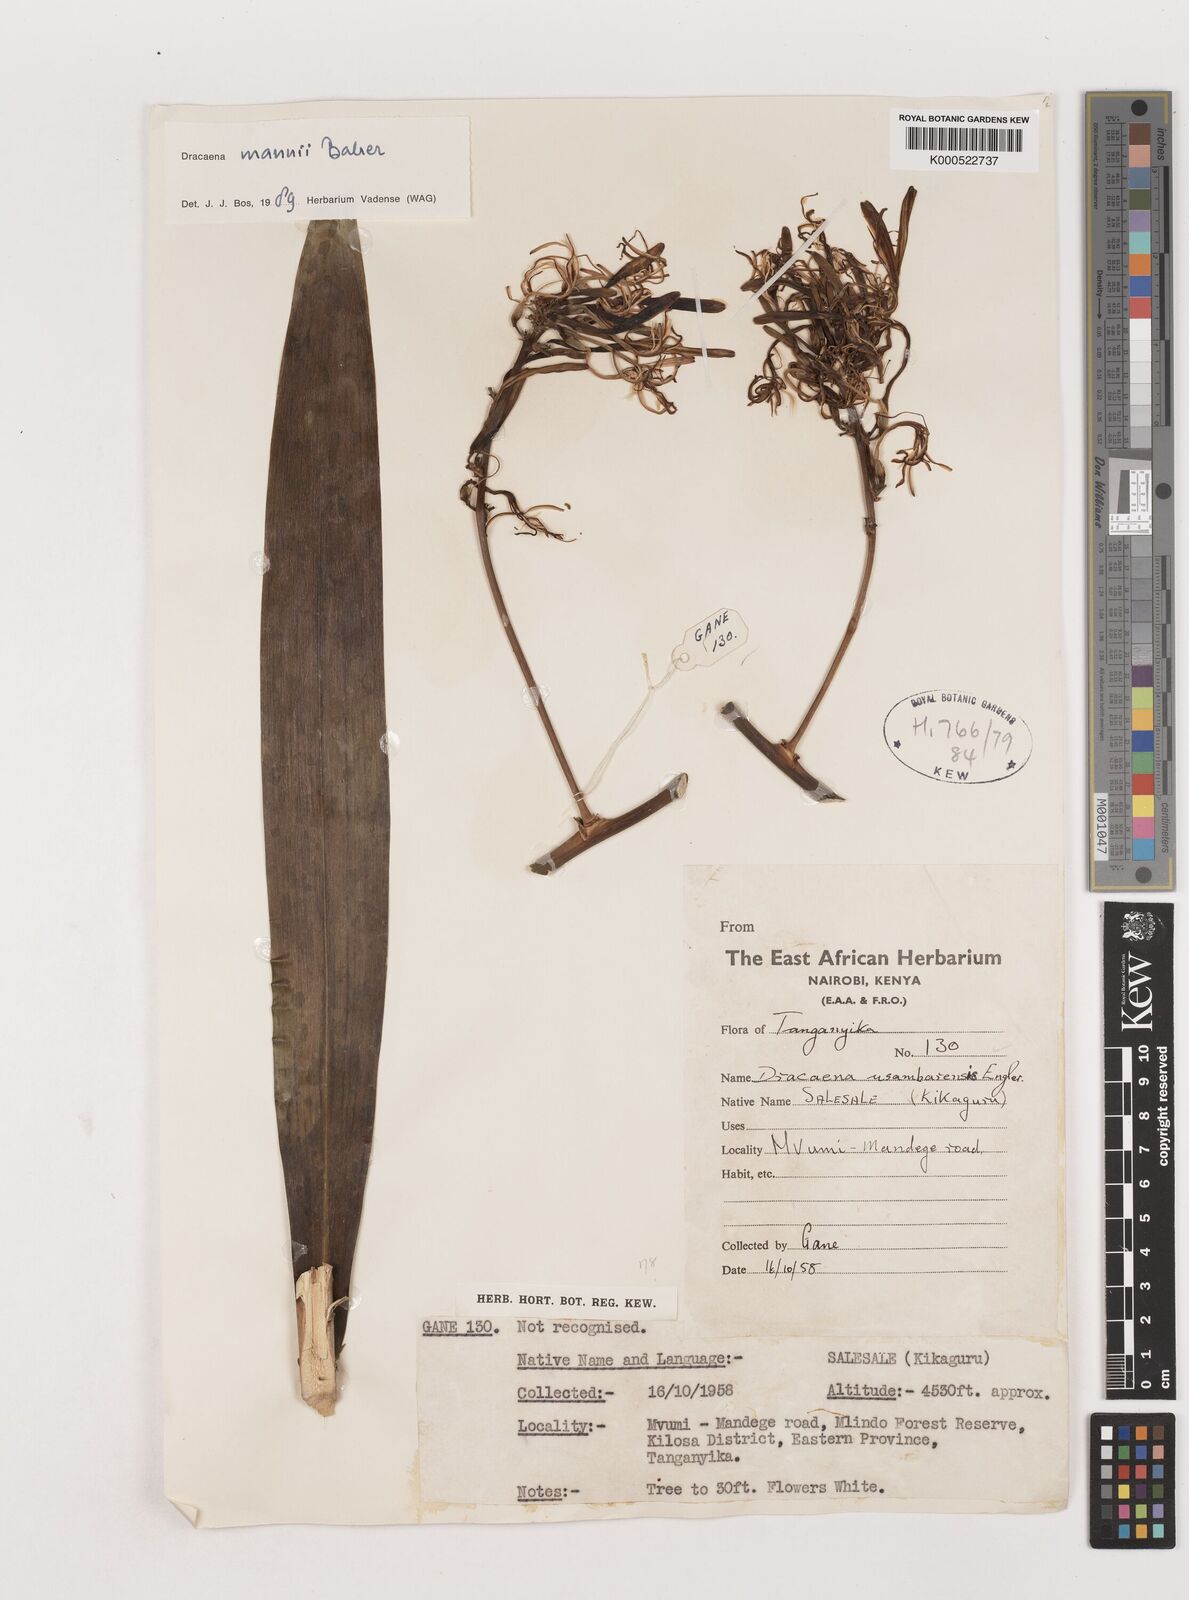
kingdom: Plantae
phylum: Tracheophyta
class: Liliopsida
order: Asparagales
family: Asparagaceae
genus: Dracaena
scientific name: Dracaena mannii
